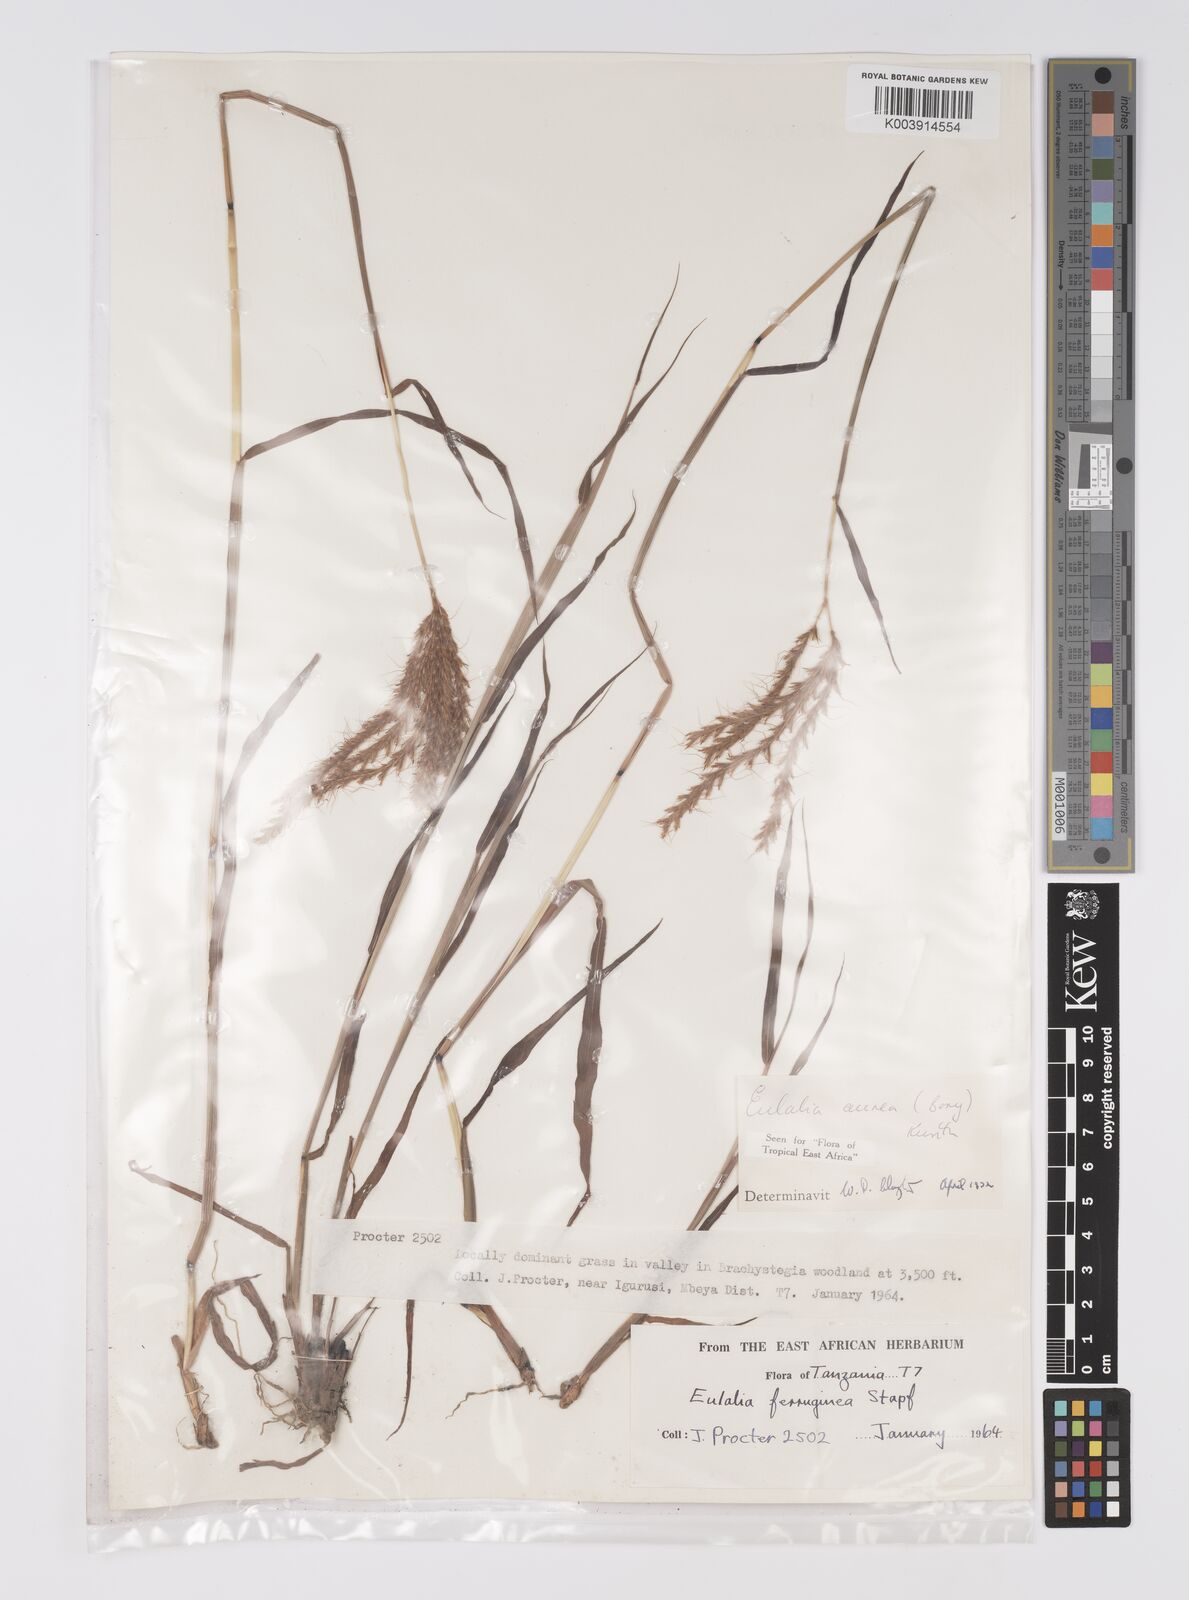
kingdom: Plantae
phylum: Tracheophyta
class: Liliopsida
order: Poales
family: Poaceae
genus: Eulalia
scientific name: Eulalia aurea
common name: Silky browntop
